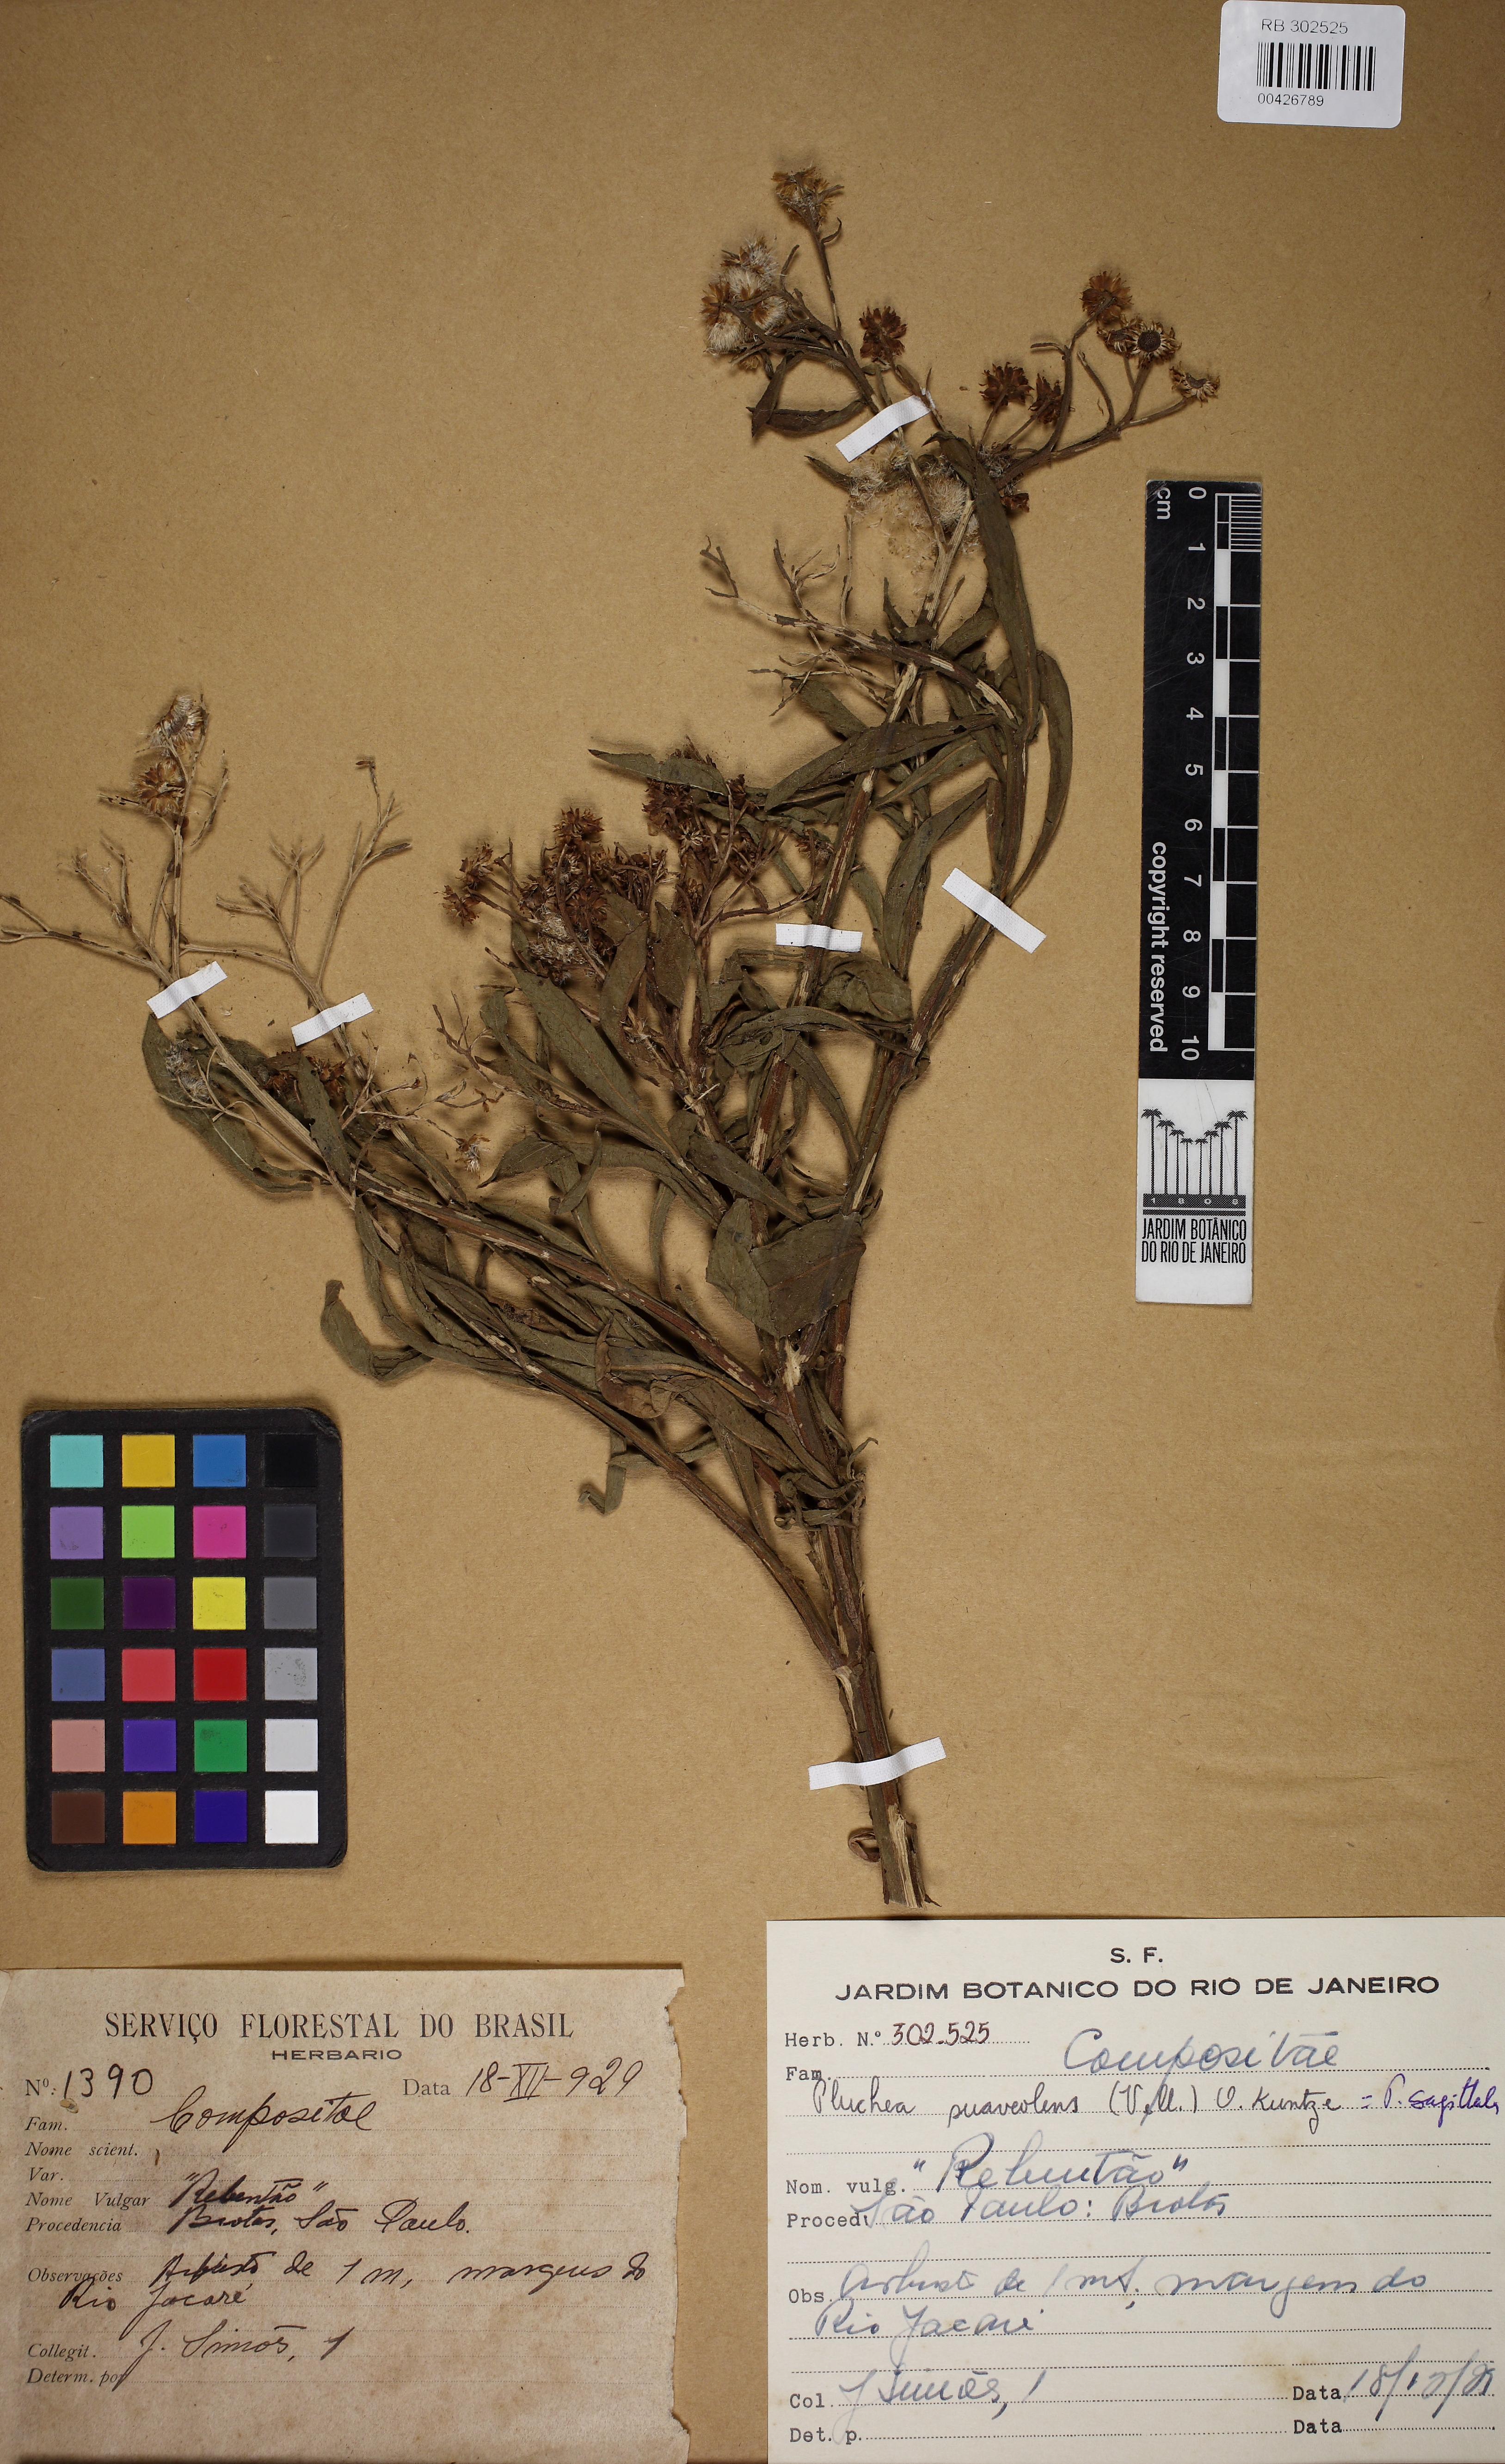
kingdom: Plantae
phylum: Tracheophyta
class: Magnoliopsida
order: Asterales
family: Asteraceae
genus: Pluchea
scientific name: Pluchea sagittalis
